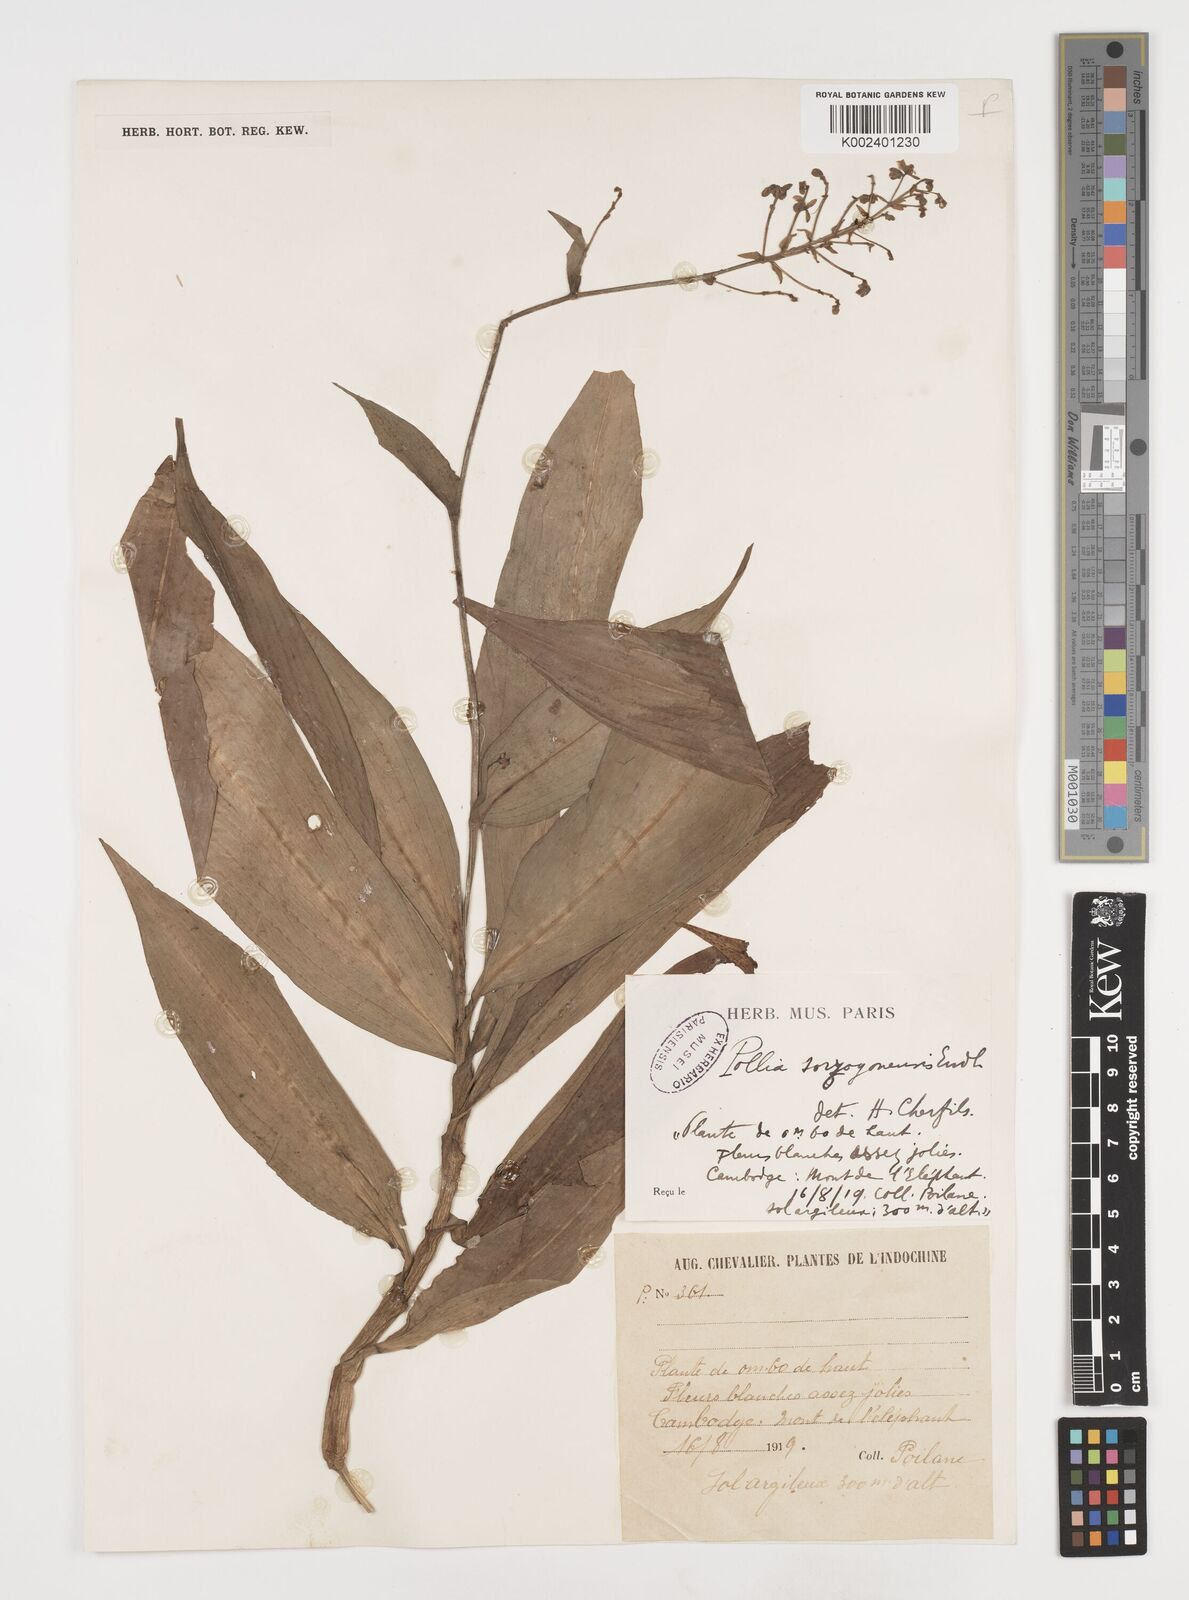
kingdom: Plantae
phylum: Tracheophyta
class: Liliopsida
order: Commelinales
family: Commelinaceae
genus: Pollia
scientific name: Pollia secundiflora
